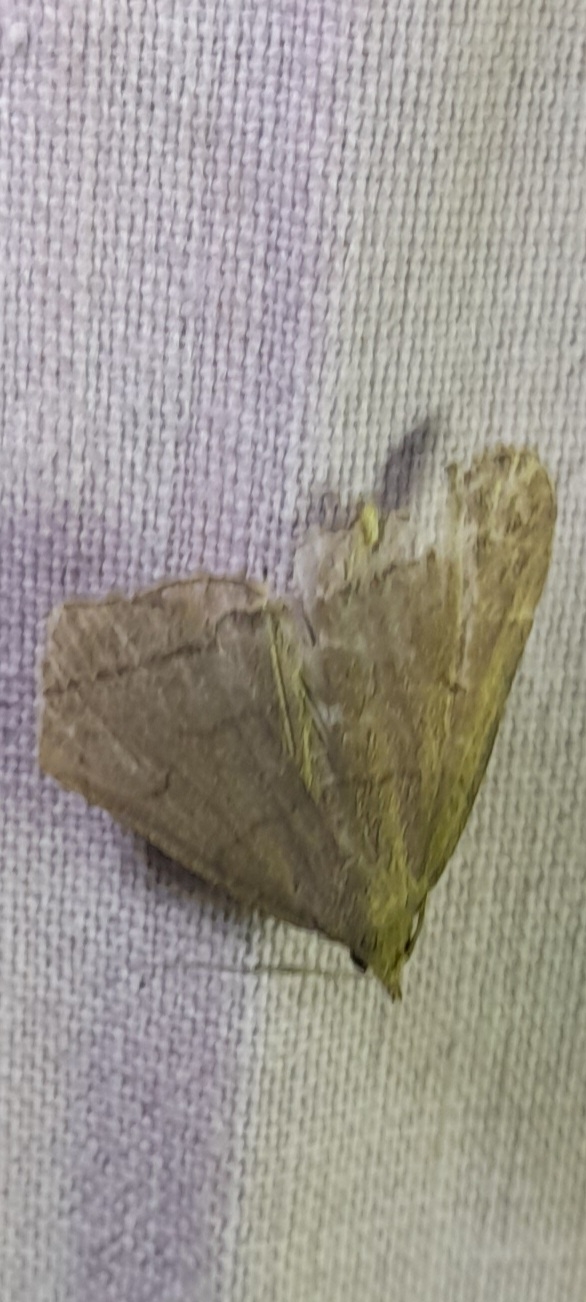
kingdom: Animalia
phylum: Arthropoda
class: Insecta
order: Lepidoptera
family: Erebidae
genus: Herminia
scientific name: Herminia tarsipennalis
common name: Almindelig snudeugle
